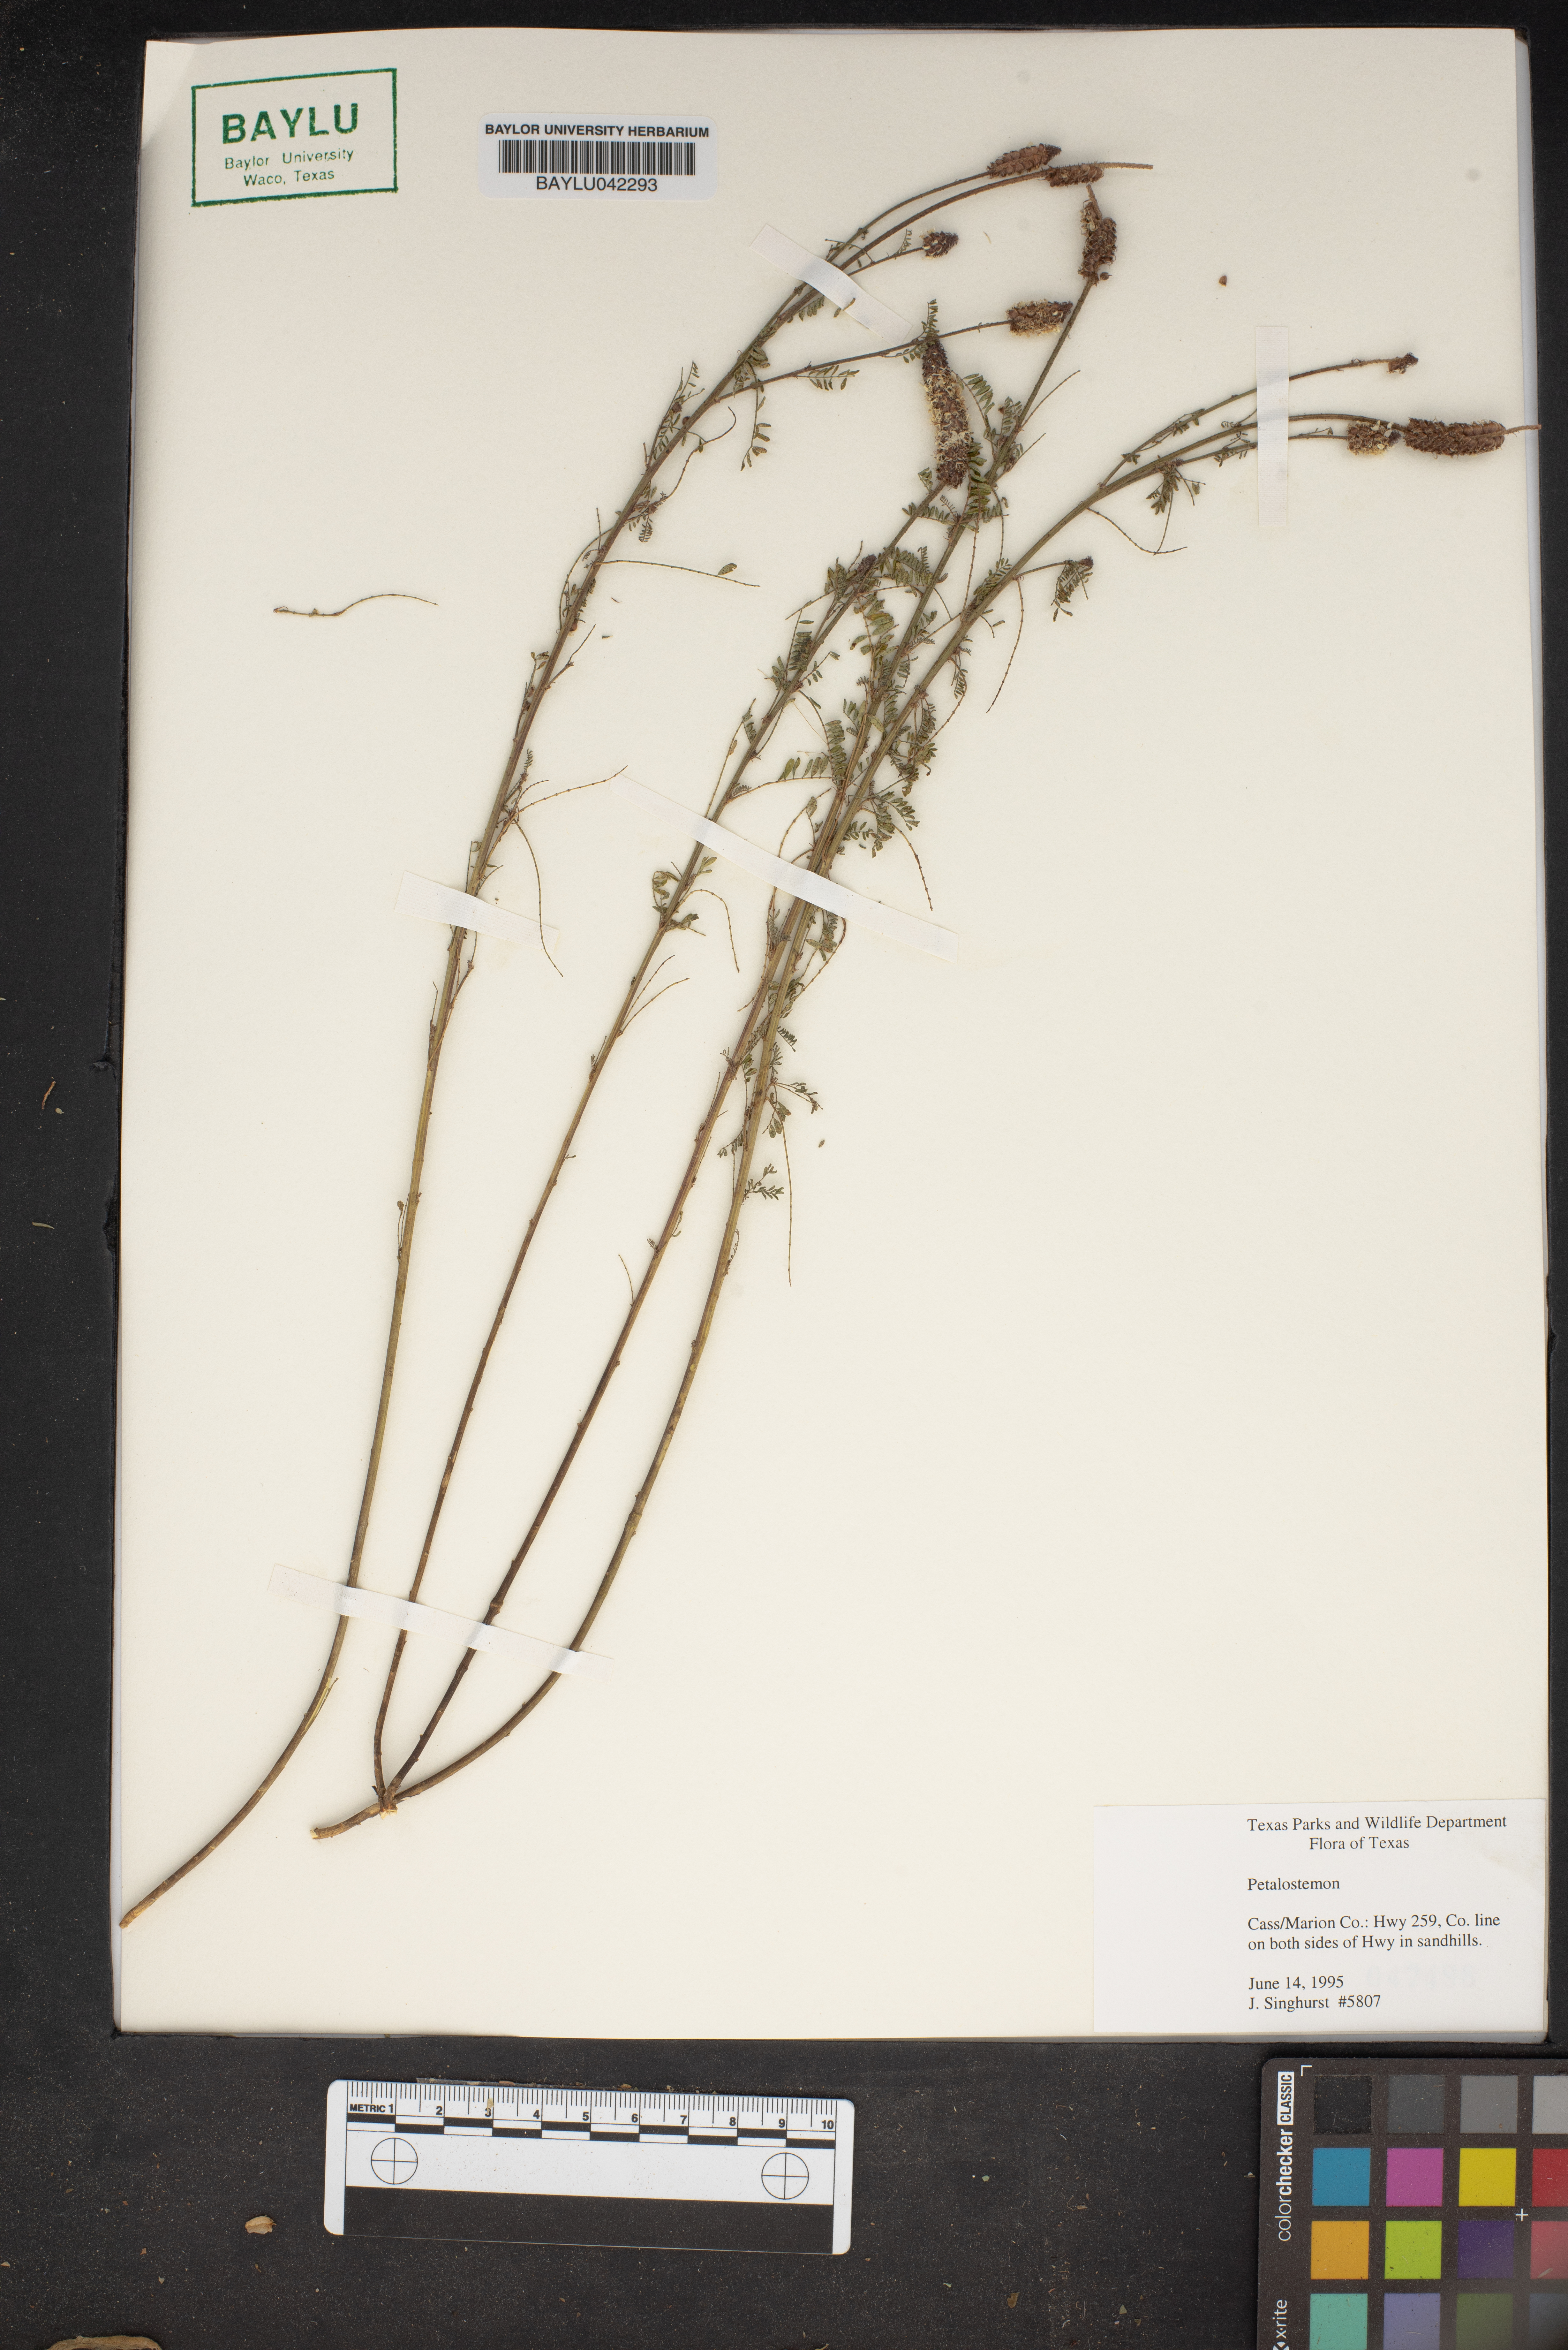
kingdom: Plantae
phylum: Tracheophyta
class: Magnoliopsida
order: Fabales
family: Fabaceae
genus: Dalea
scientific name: Dalea
